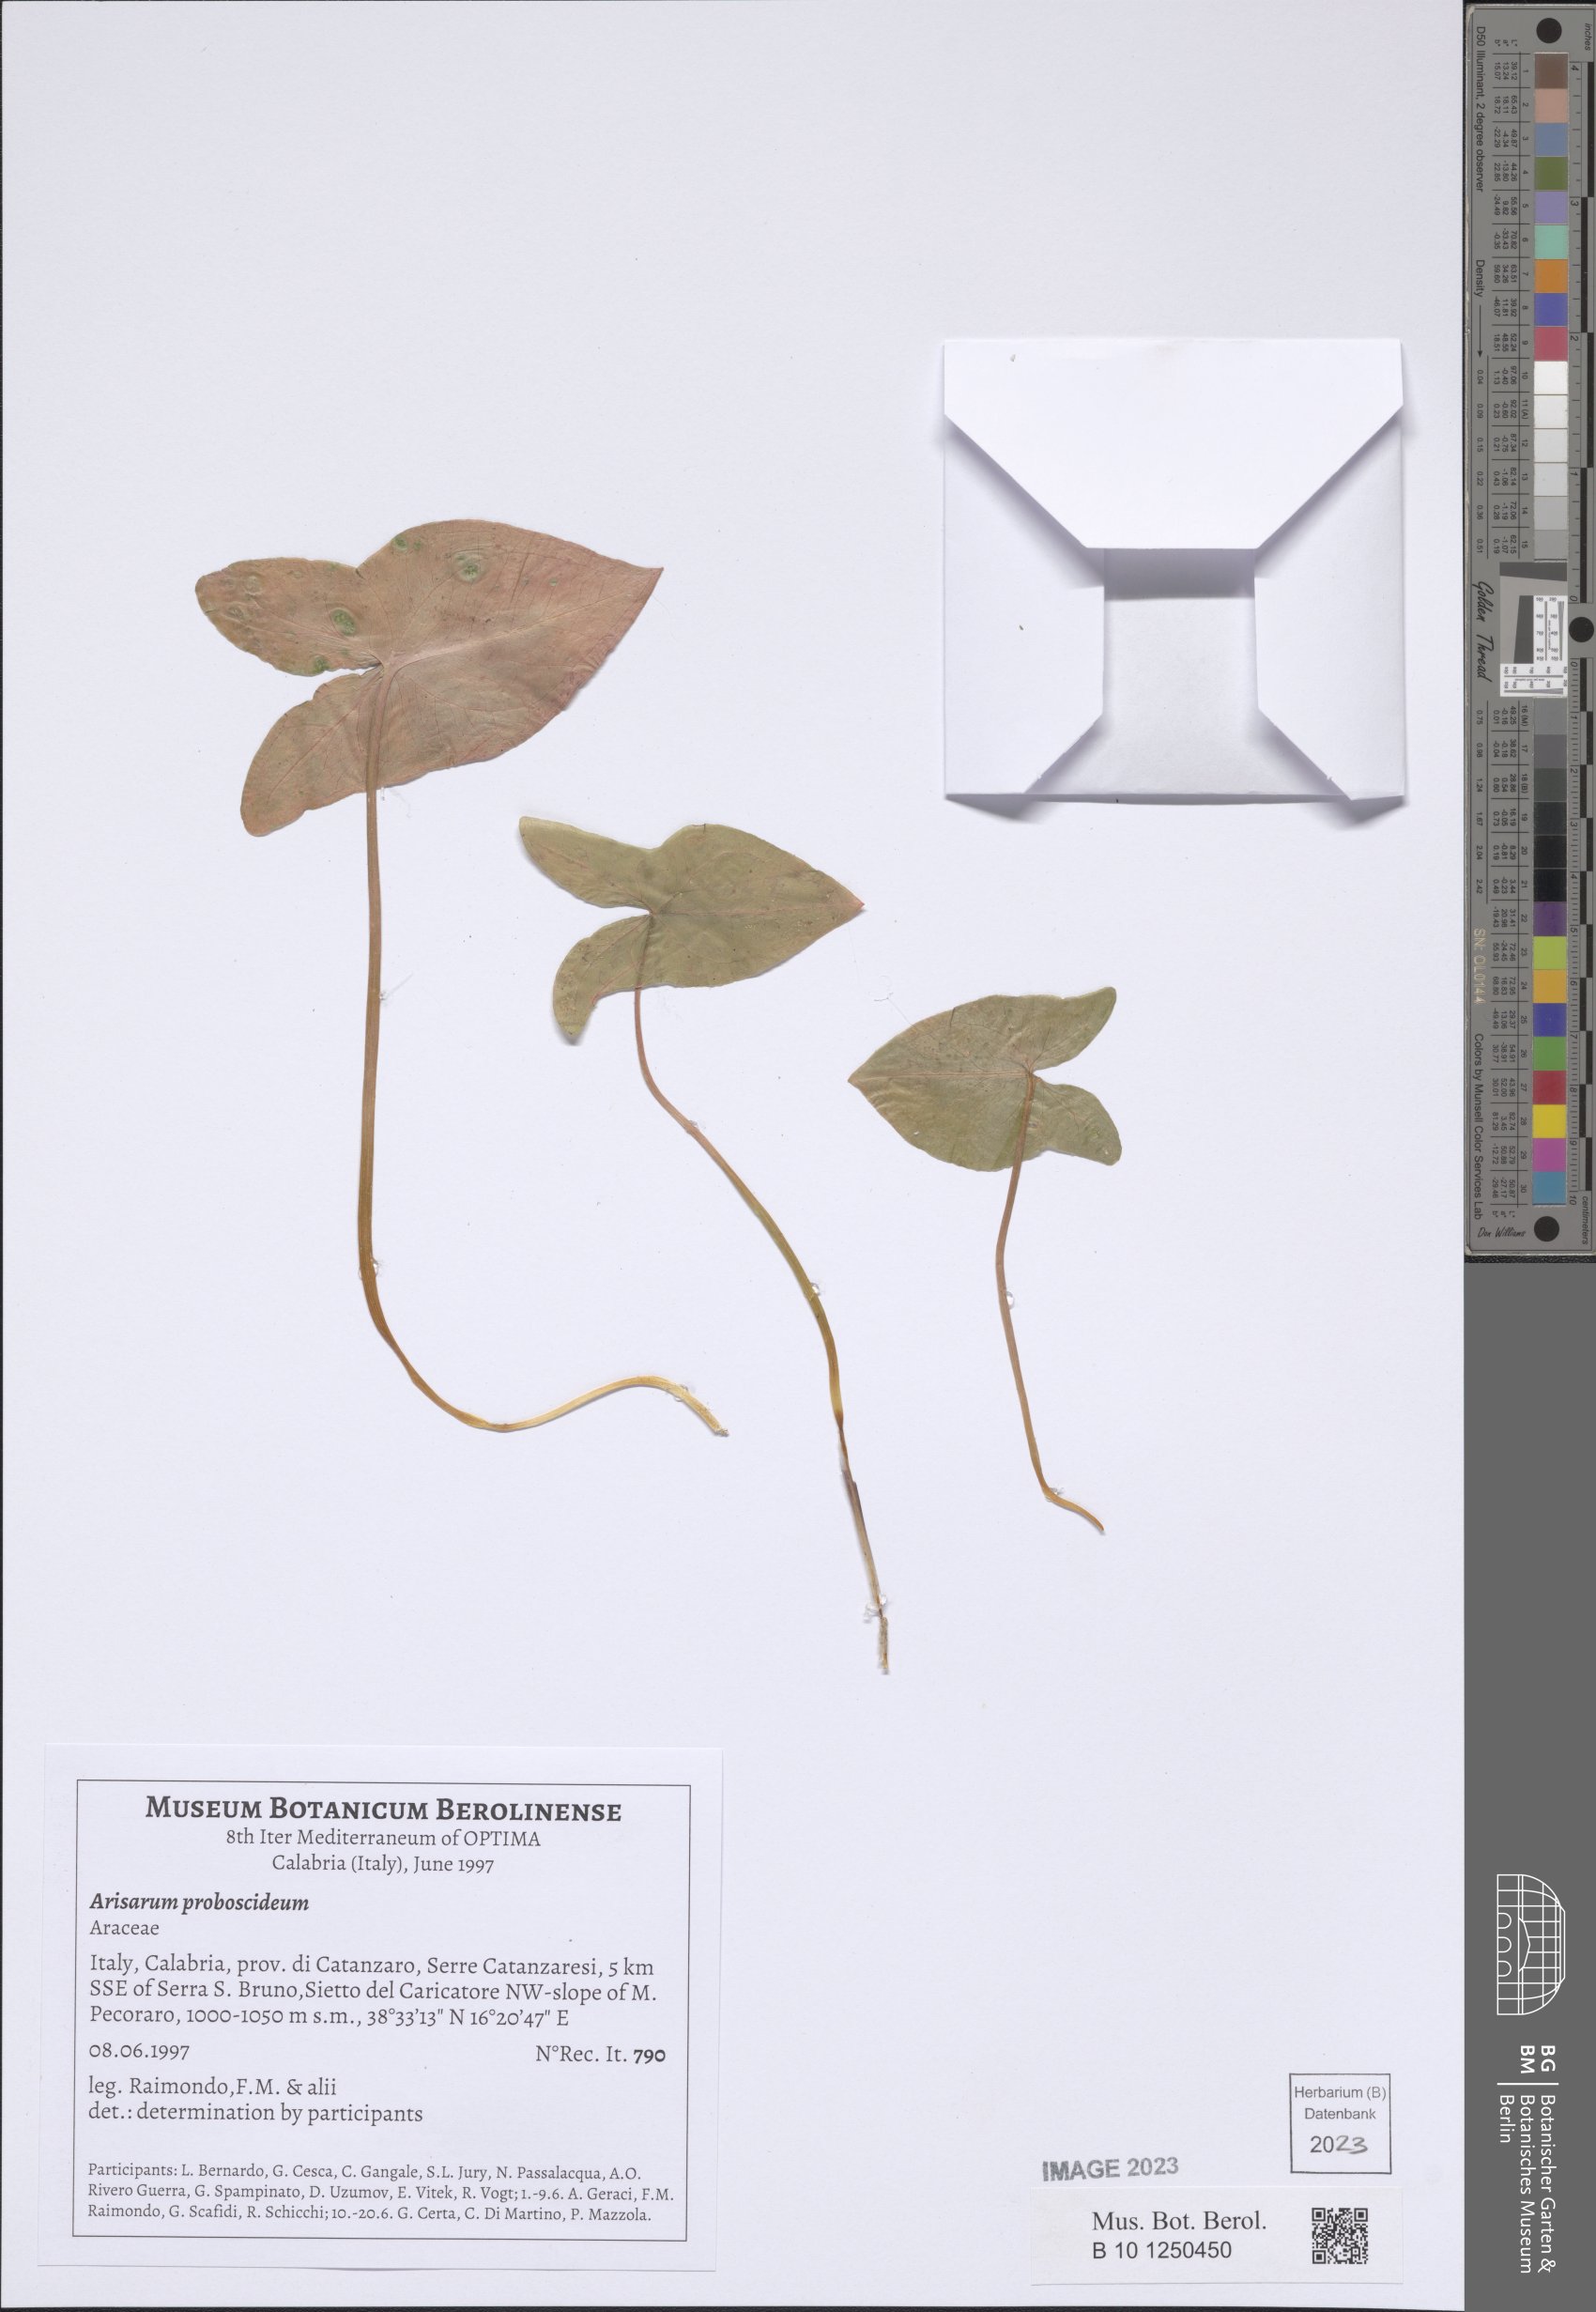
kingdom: Plantae
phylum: Tracheophyta
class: Liliopsida
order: Alismatales
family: Araceae
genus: Arisarum
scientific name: Arisarum proboscideum
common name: Mousetailplant
